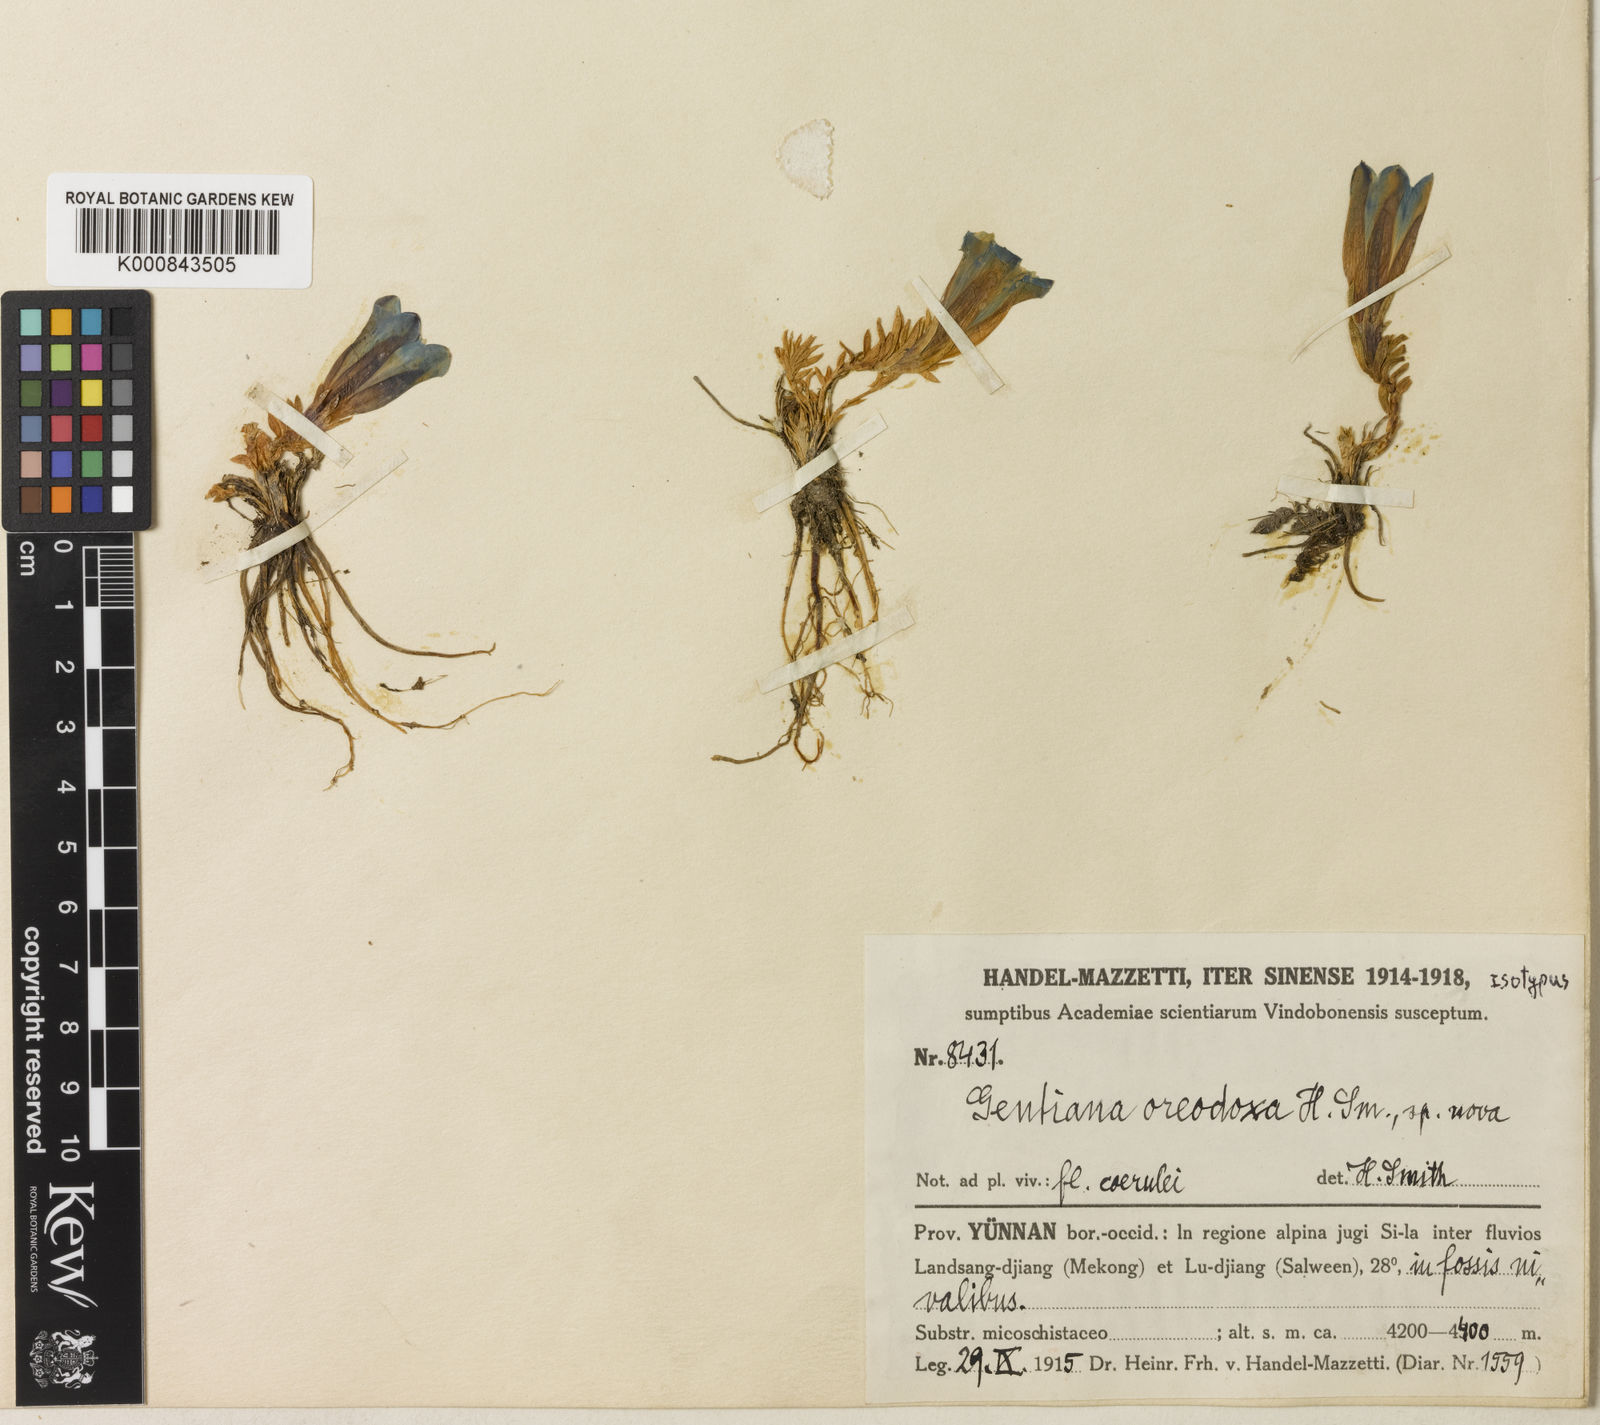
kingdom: Plantae
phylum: Tracheophyta
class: Magnoliopsida
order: Gentianales
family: Gentianaceae
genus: Gentiana
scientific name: Gentiana
